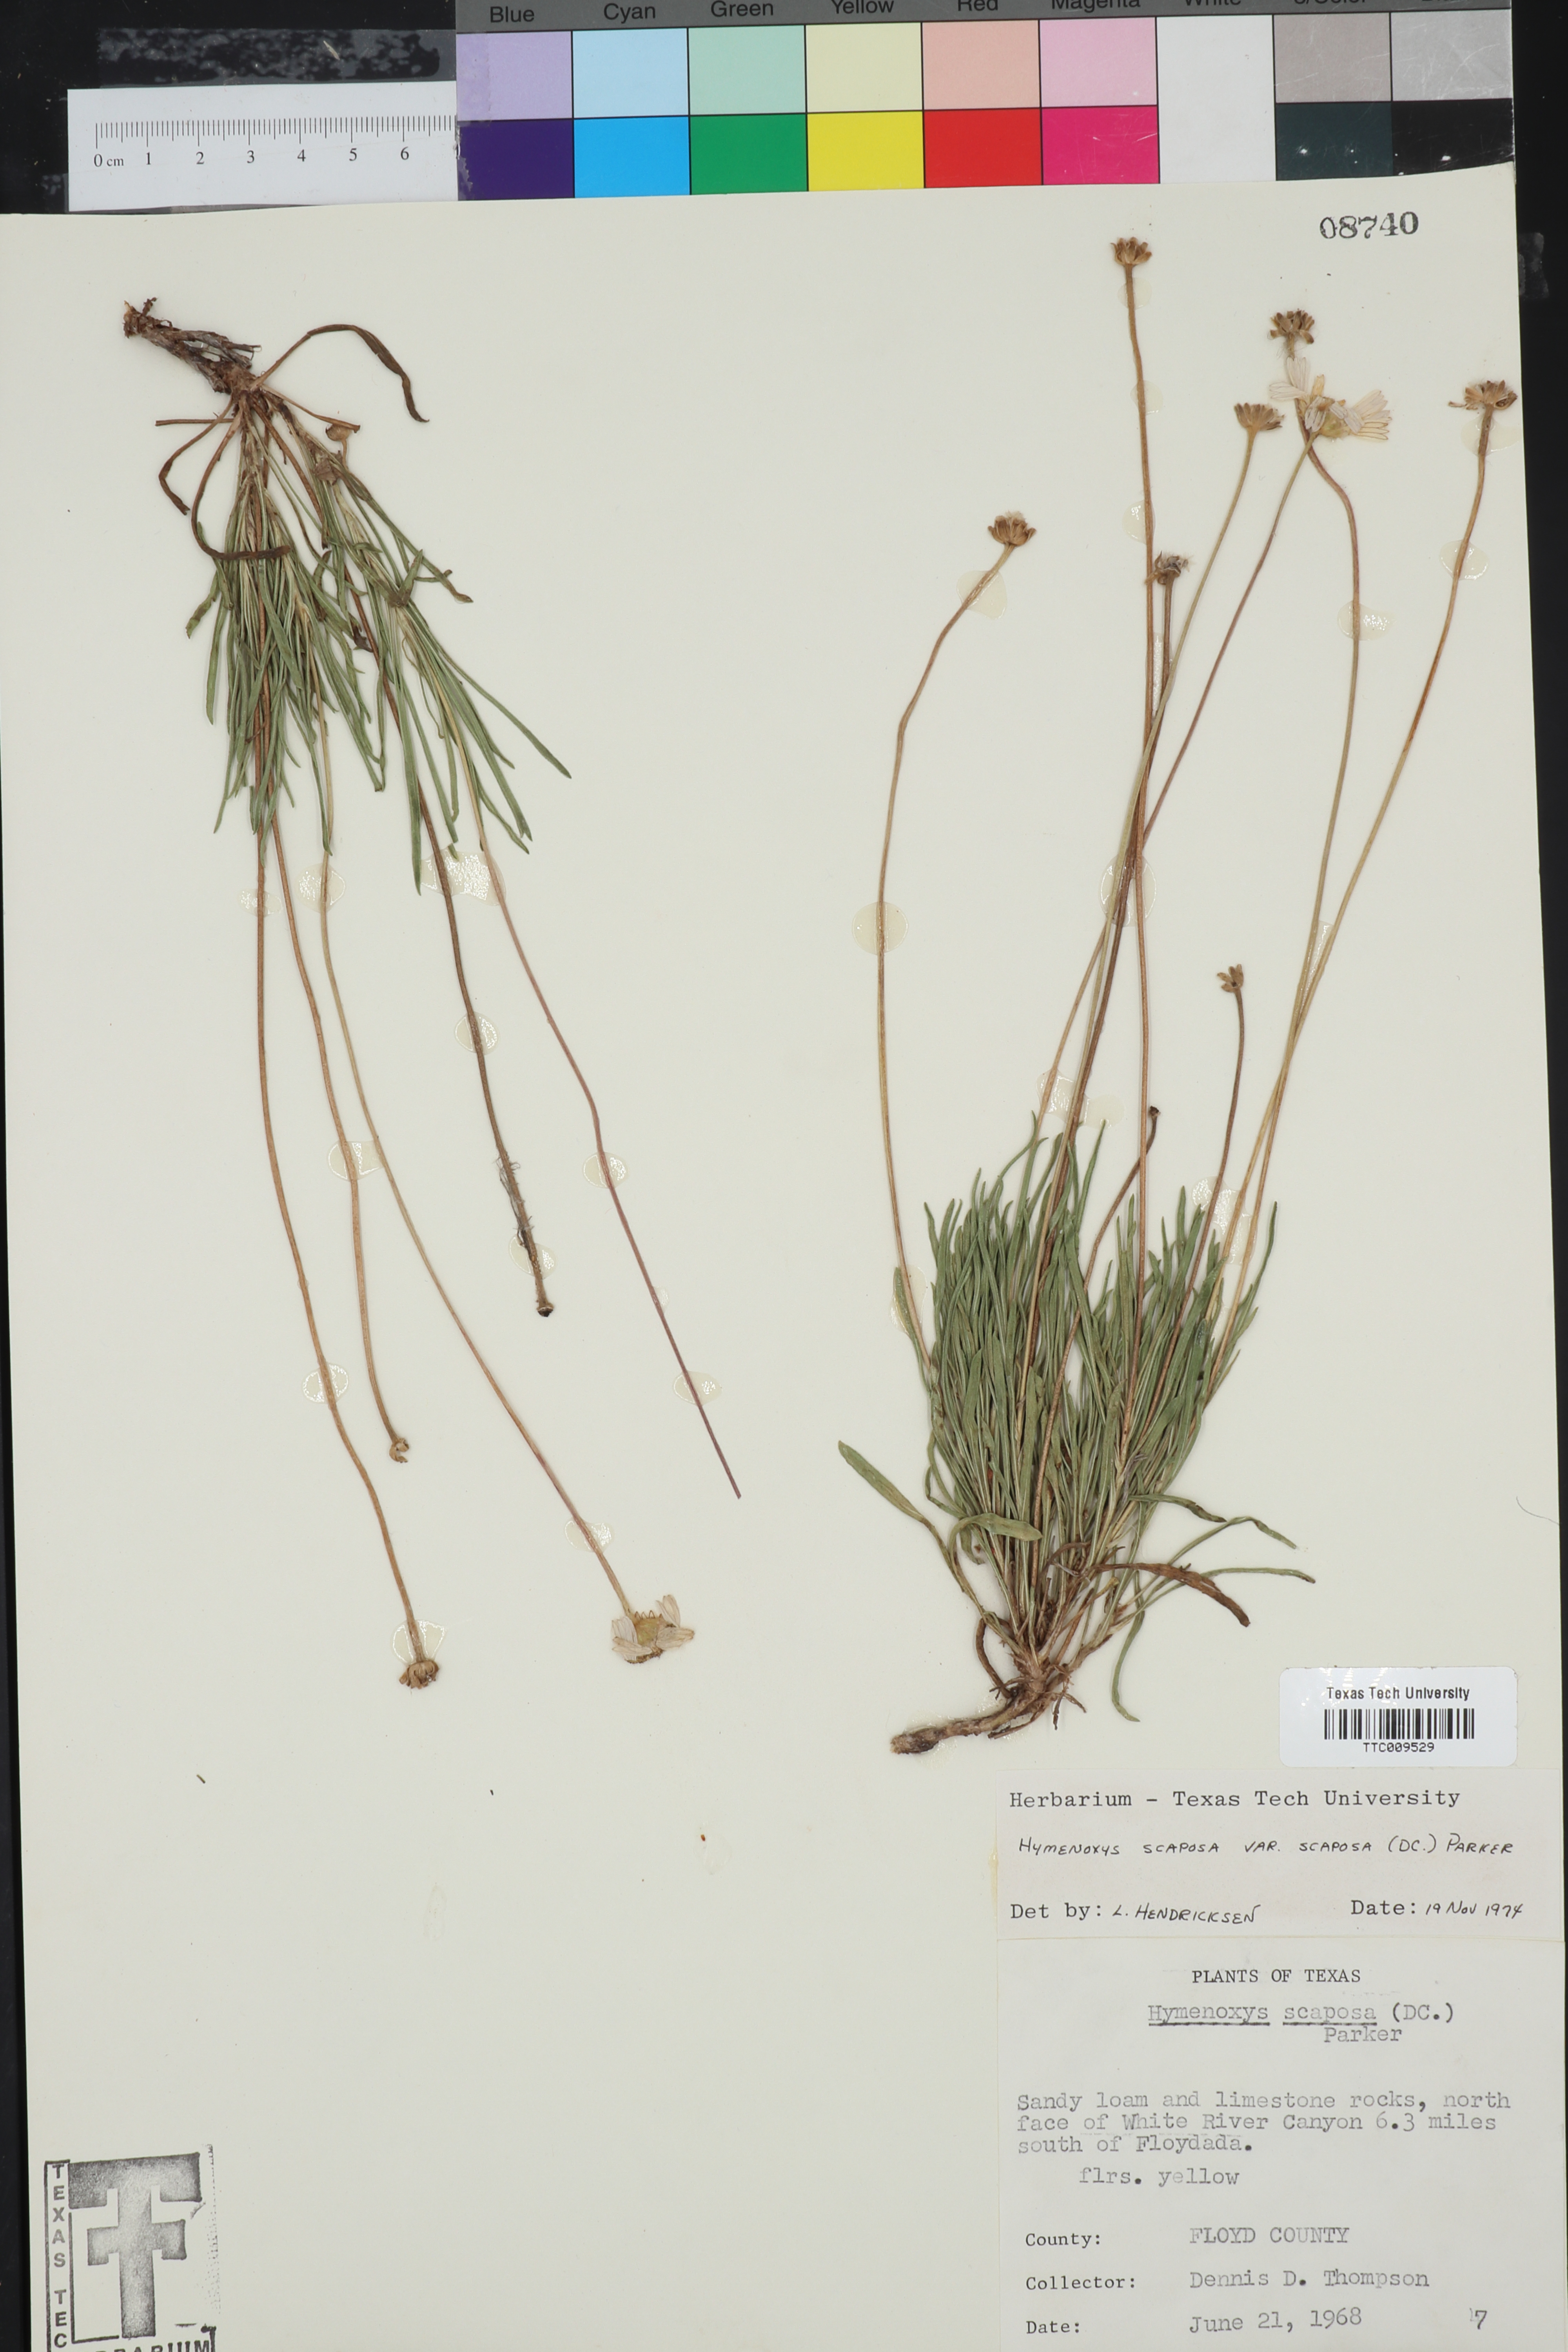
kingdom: Plantae
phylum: Tracheophyta
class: Magnoliopsida
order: Asterales
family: Asteraceae
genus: Tetraneuris
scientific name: Tetraneuris scaposa
